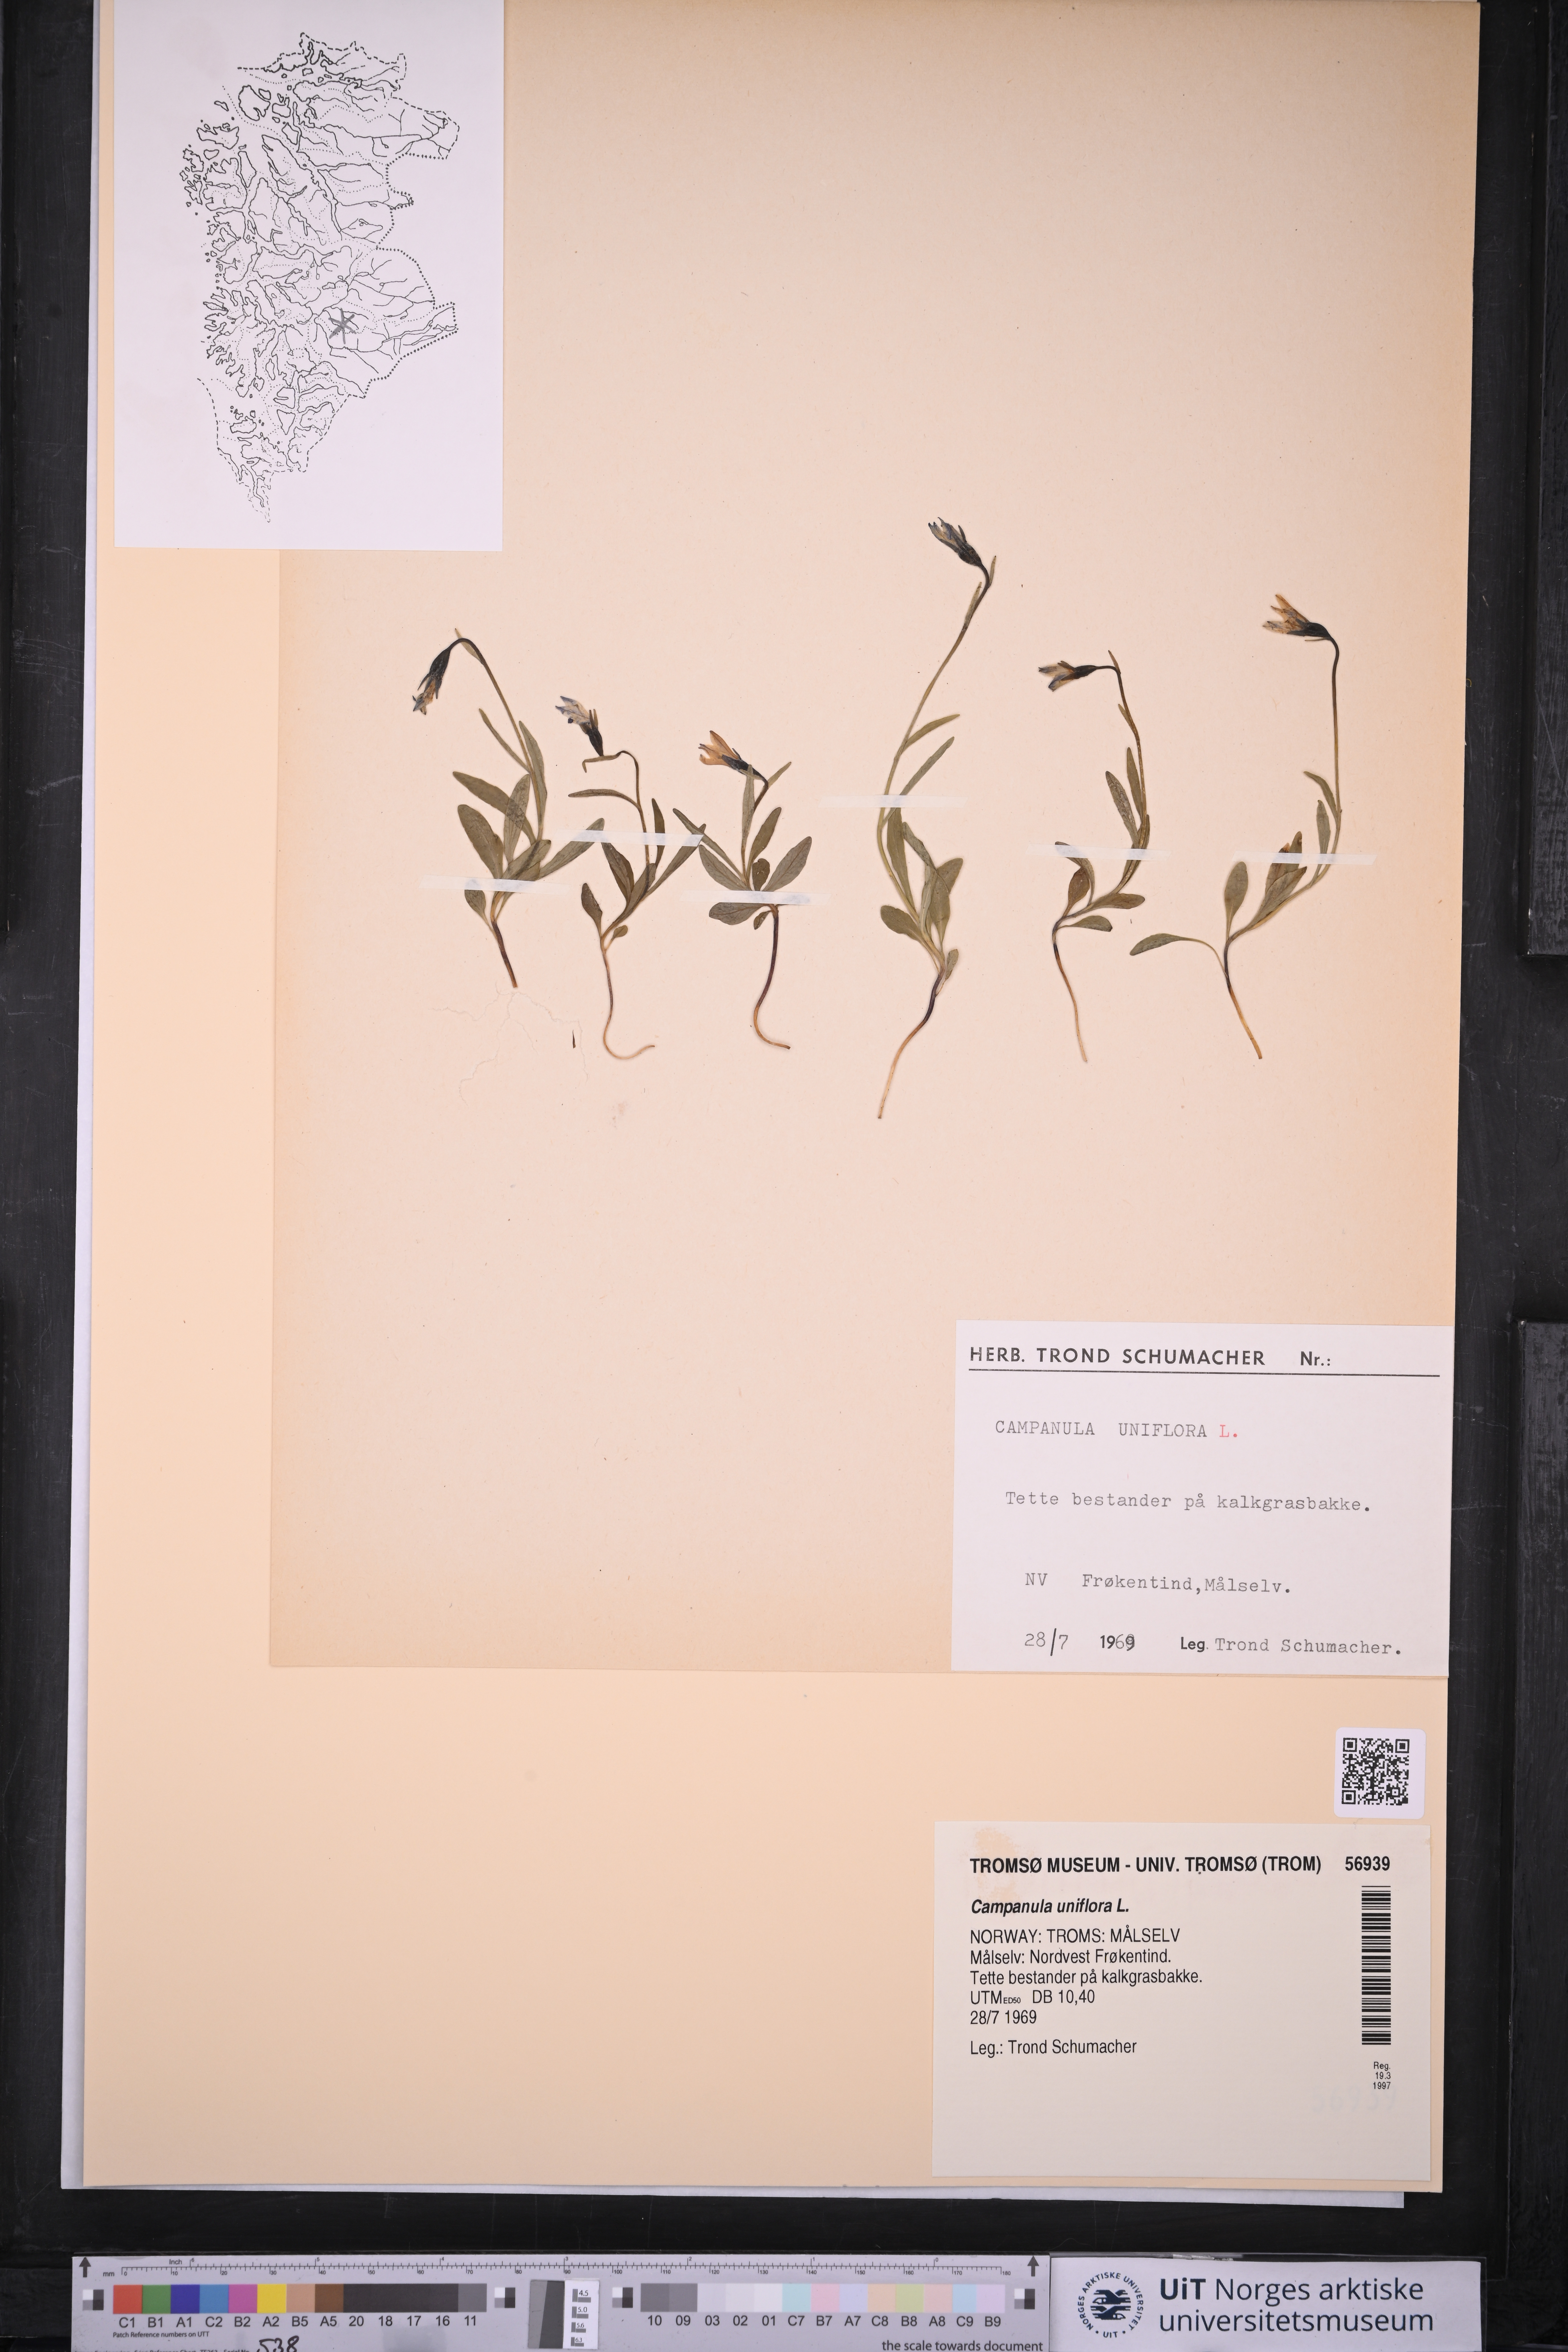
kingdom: Plantae
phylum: Tracheophyta
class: Magnoliopsida
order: Asterales
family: Campanulaceae
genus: Melanocalyx
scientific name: Melanocalyx uniflora
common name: Alpine harebell
